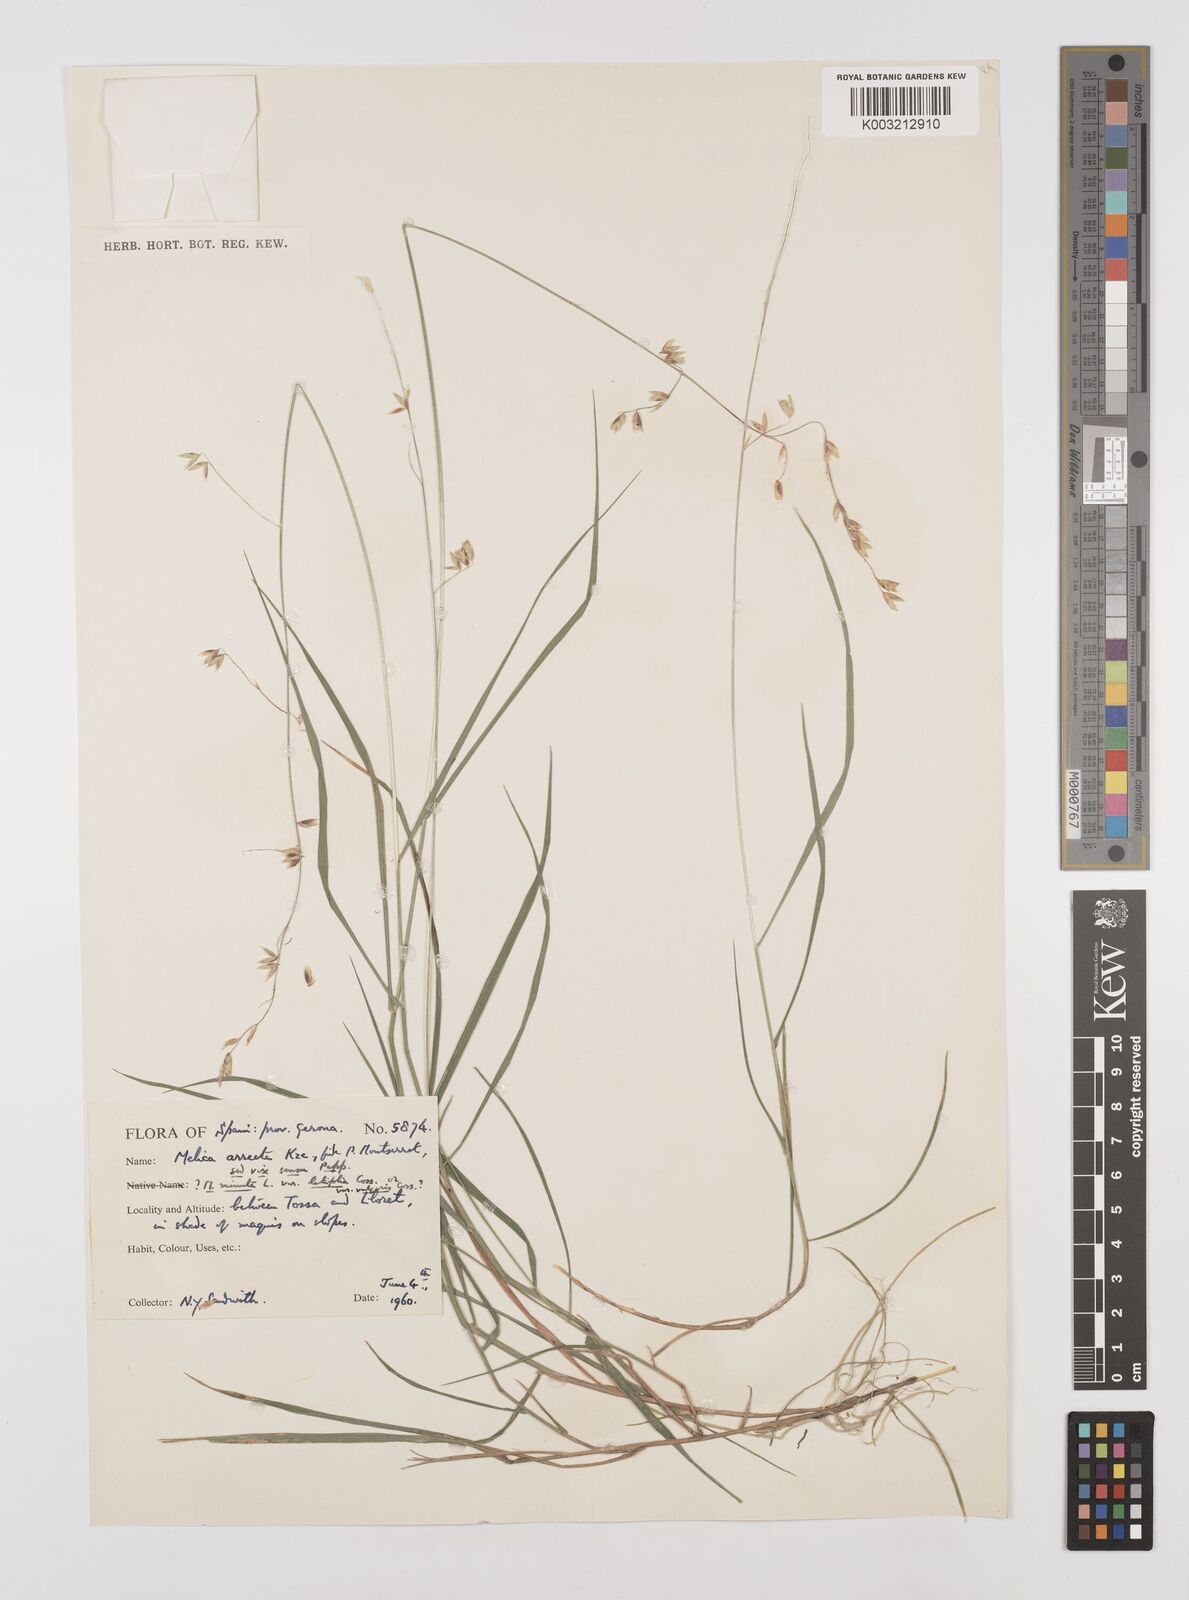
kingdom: Plantae
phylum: Tracheophyta
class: Liliopsida
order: Poales
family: Poaceae
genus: Melica
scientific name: Melica minuta
